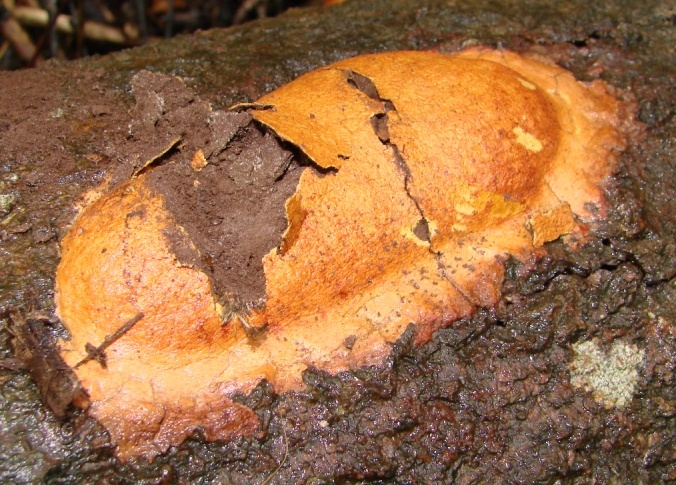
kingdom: Protozoa
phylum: Mycetozoa
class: Myxomycetes
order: Physarales
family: Physaraceae
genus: Fuligo
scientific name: Fuligo leviderma
